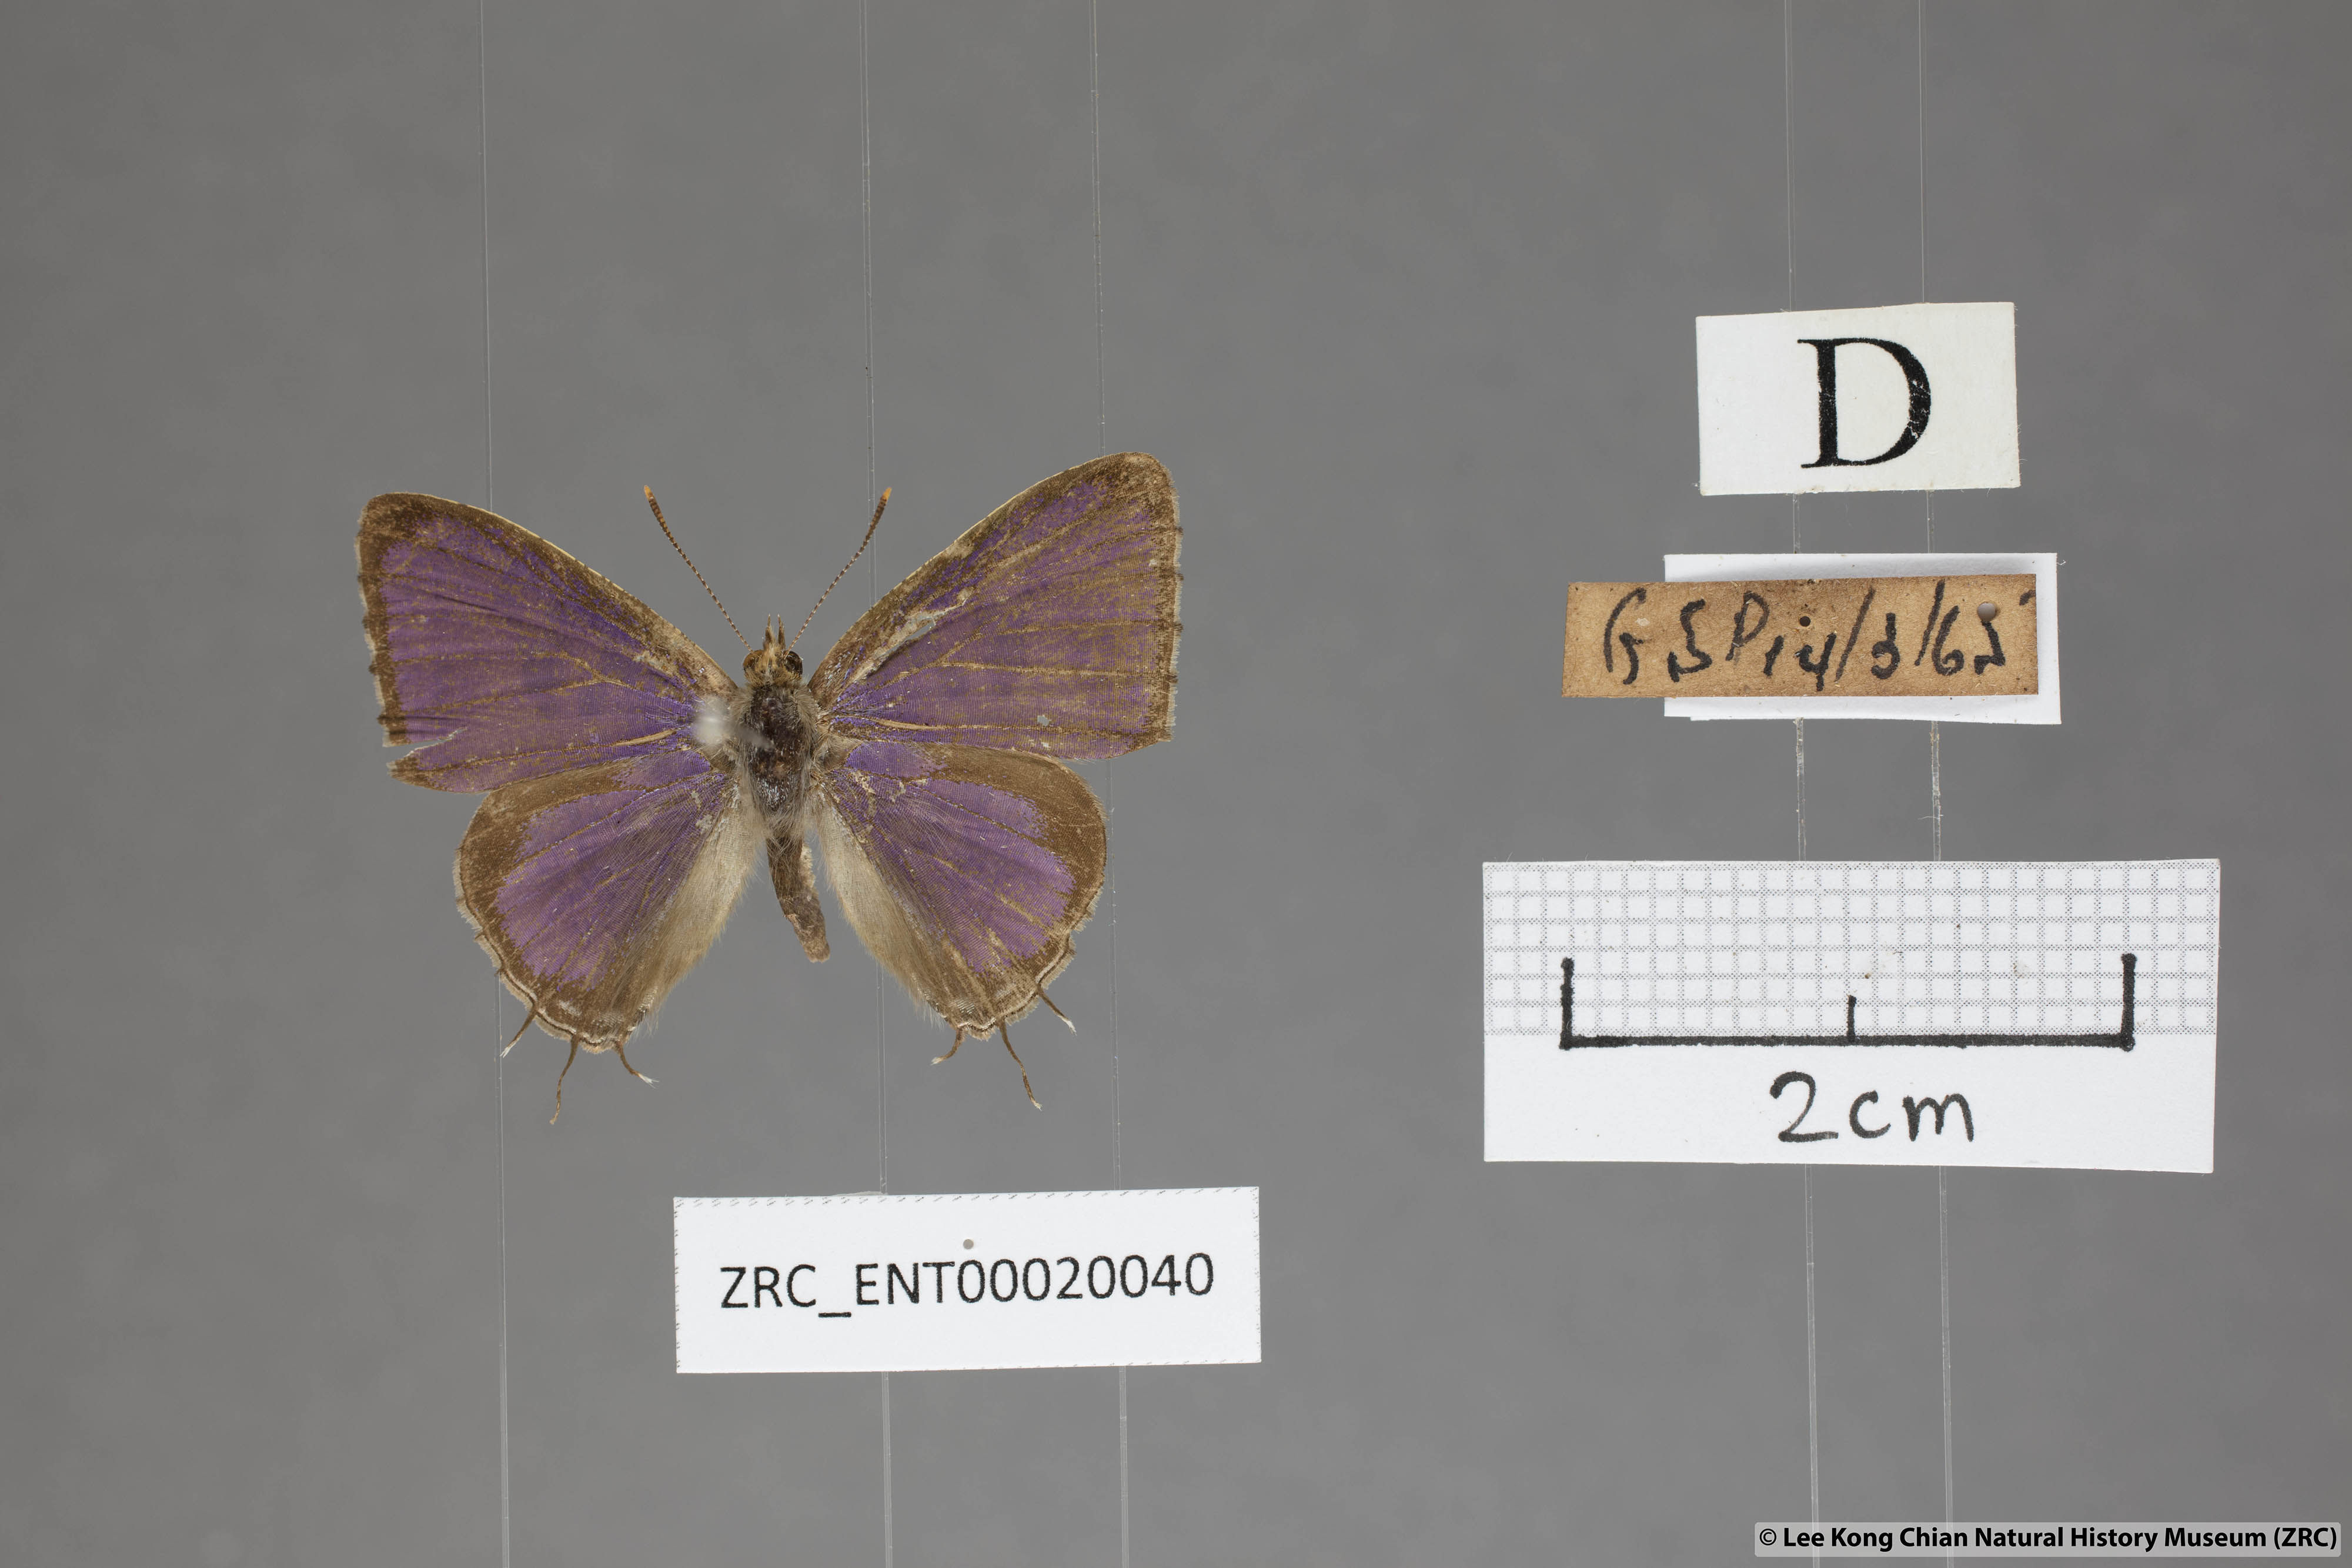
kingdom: Animalia
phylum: Arthropoda
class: Insecta
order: Lepidoptera
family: Lycaenidae
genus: Catapaecilma
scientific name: Catapaecilma major
